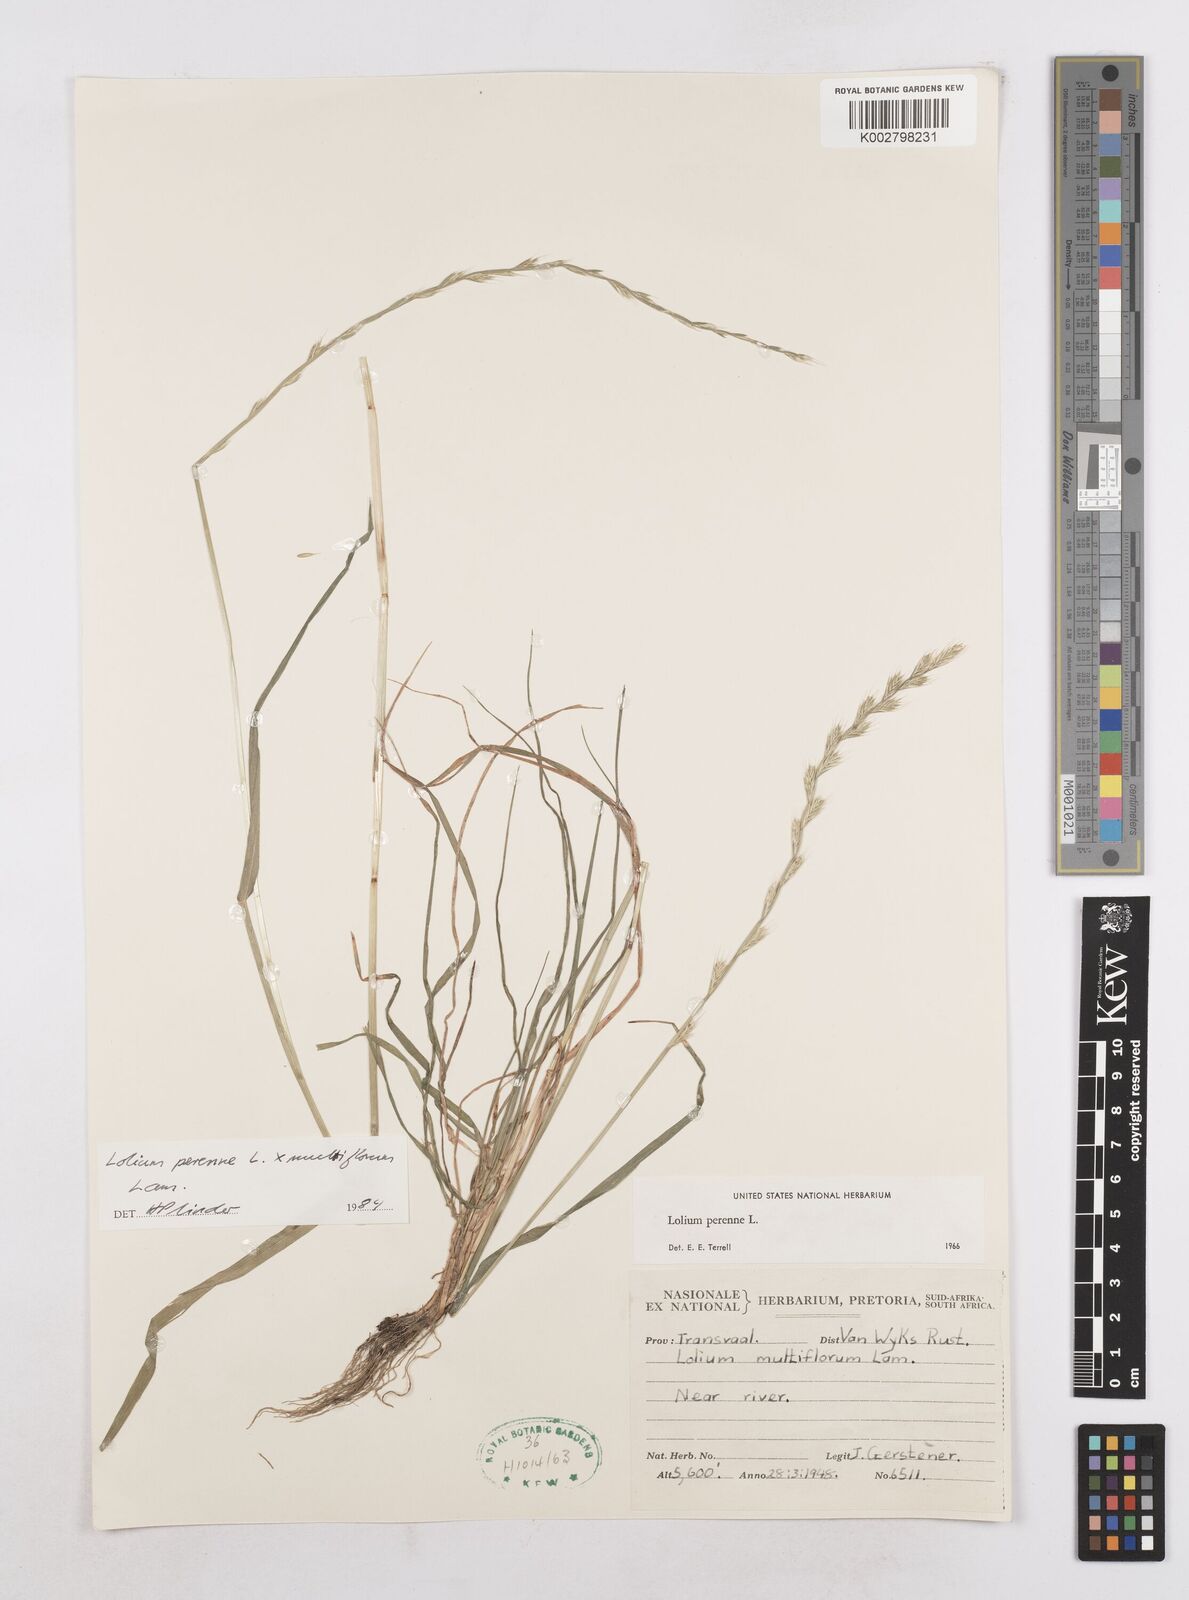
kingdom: Plantae
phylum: Tracheophyta
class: Liliopsida
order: Poales
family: Poaceae
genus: Lolium
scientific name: Lolium multiflorum
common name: Annual ryegrass
